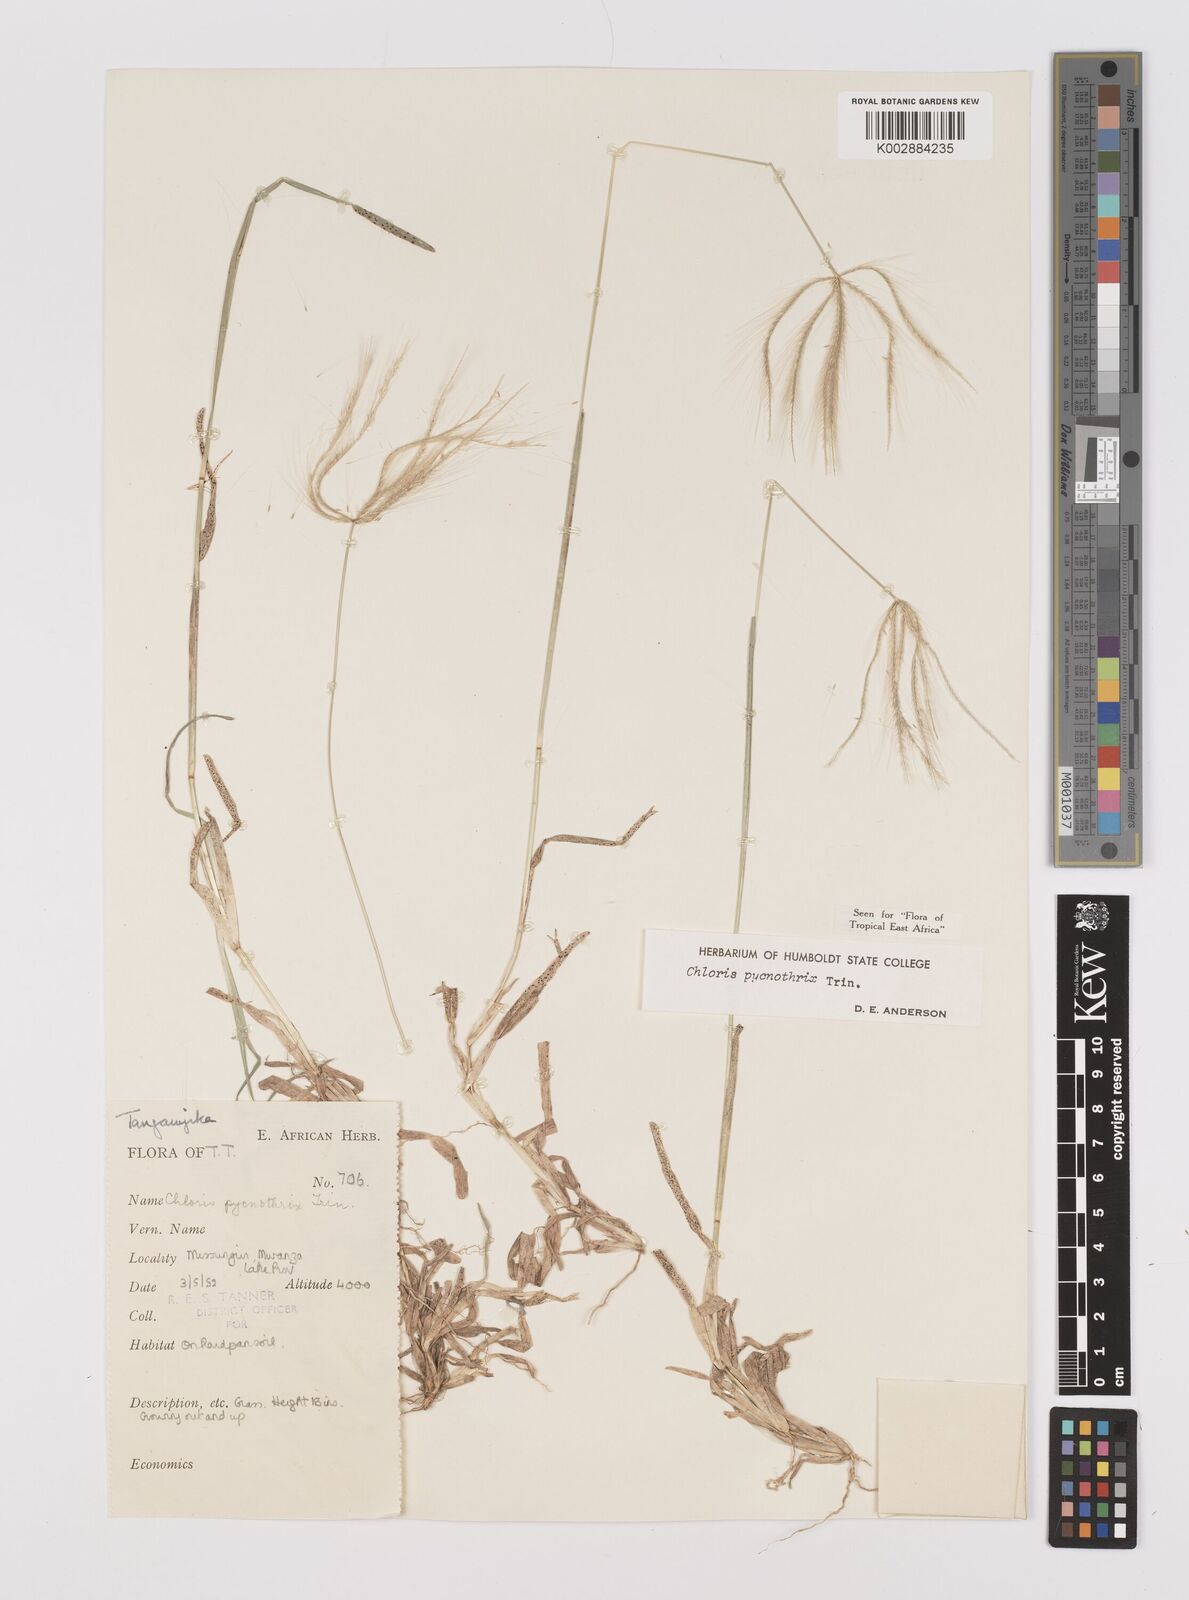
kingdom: Plantae
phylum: Tracheophyta
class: Liliopsida
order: Poales
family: Poaceae
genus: Chloris
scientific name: Chloris pycnothrix
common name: Spiderweb chloris
